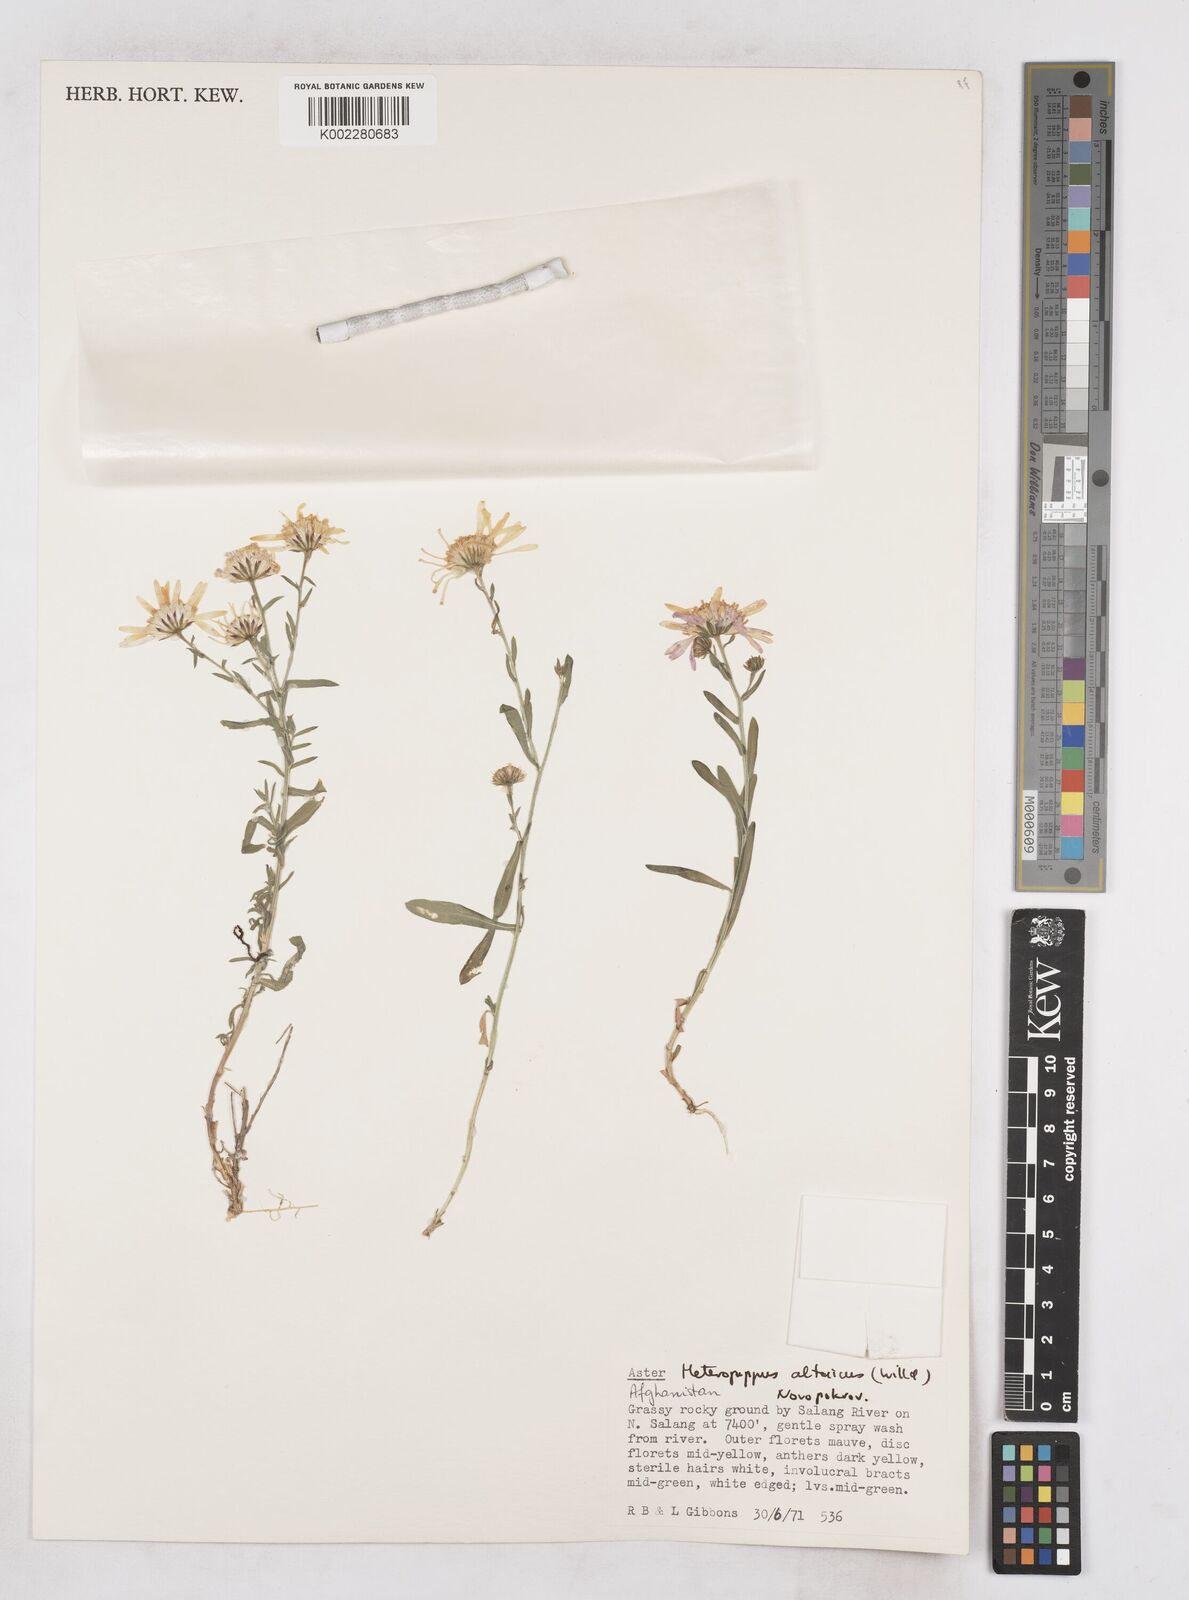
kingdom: Plantae
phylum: Tracheophyta
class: Magnoliopsida
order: Asterales
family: Asteraceae
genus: Heteropappus
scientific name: Heteropappus altaicus
